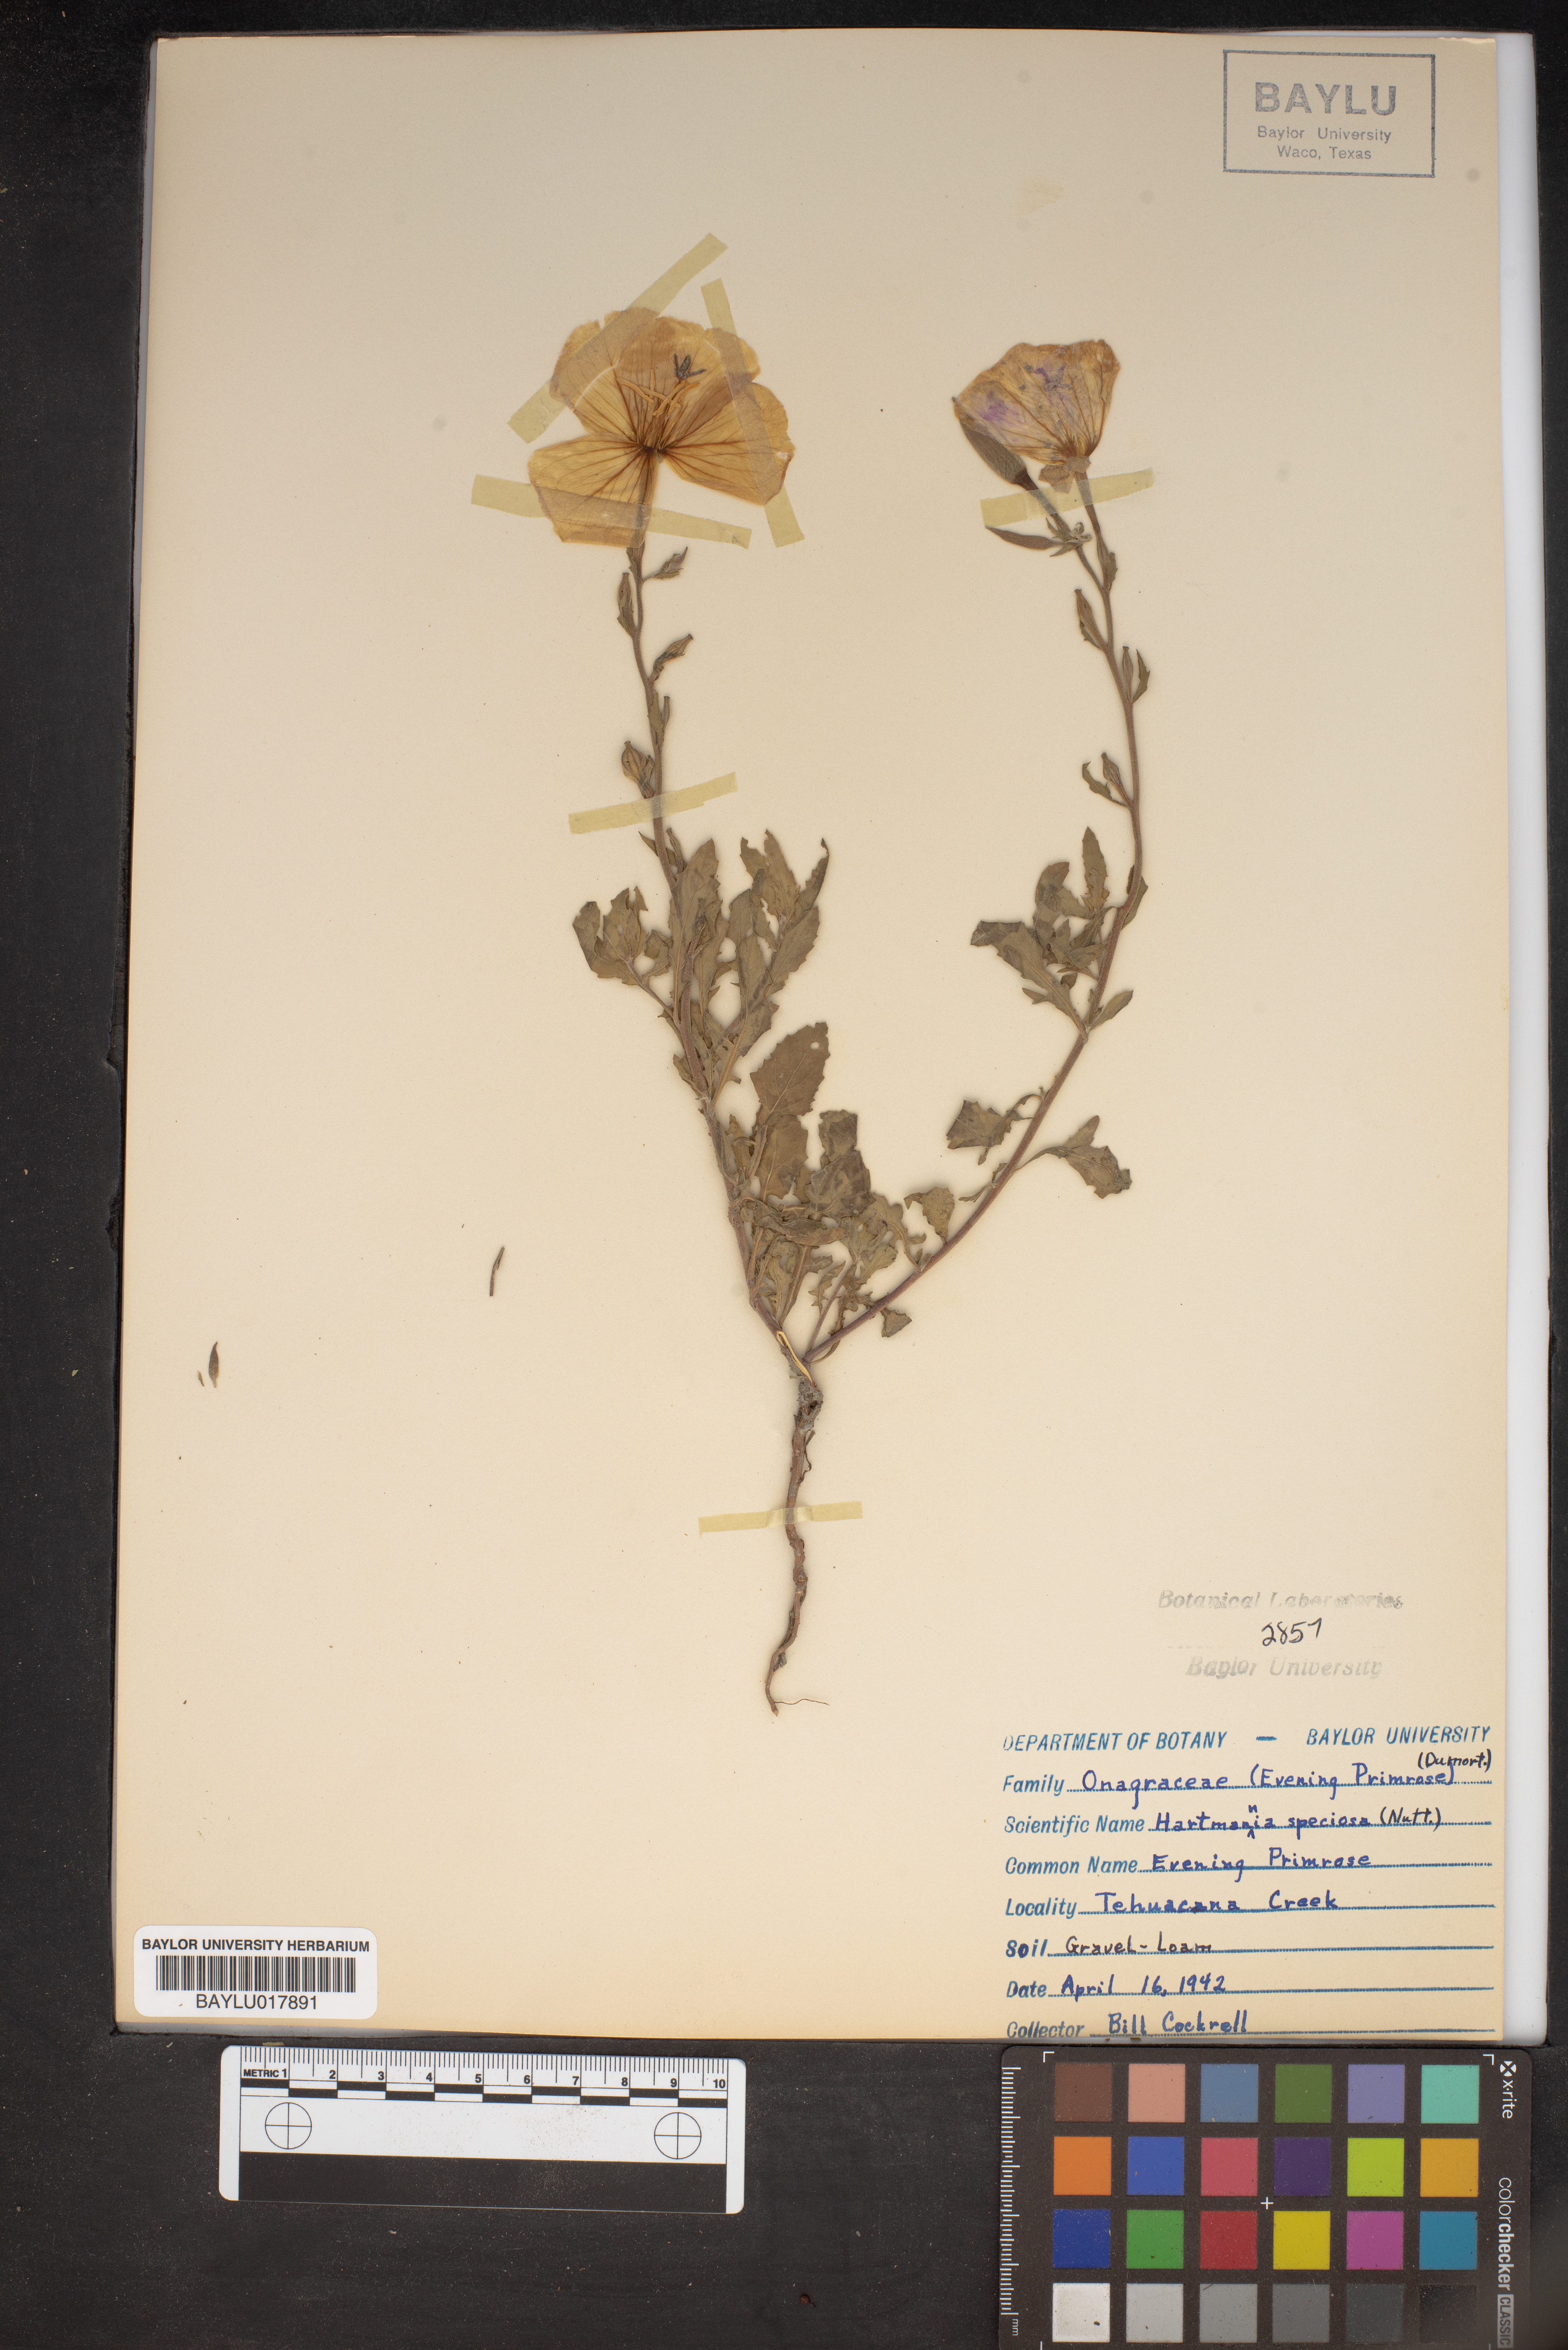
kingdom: Plantae
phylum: Tracheophyta
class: Magnoliopsida
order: Myrtales
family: Onagraceae
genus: Oenothera
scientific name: Oenothera speciosa
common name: White evening-primrose
